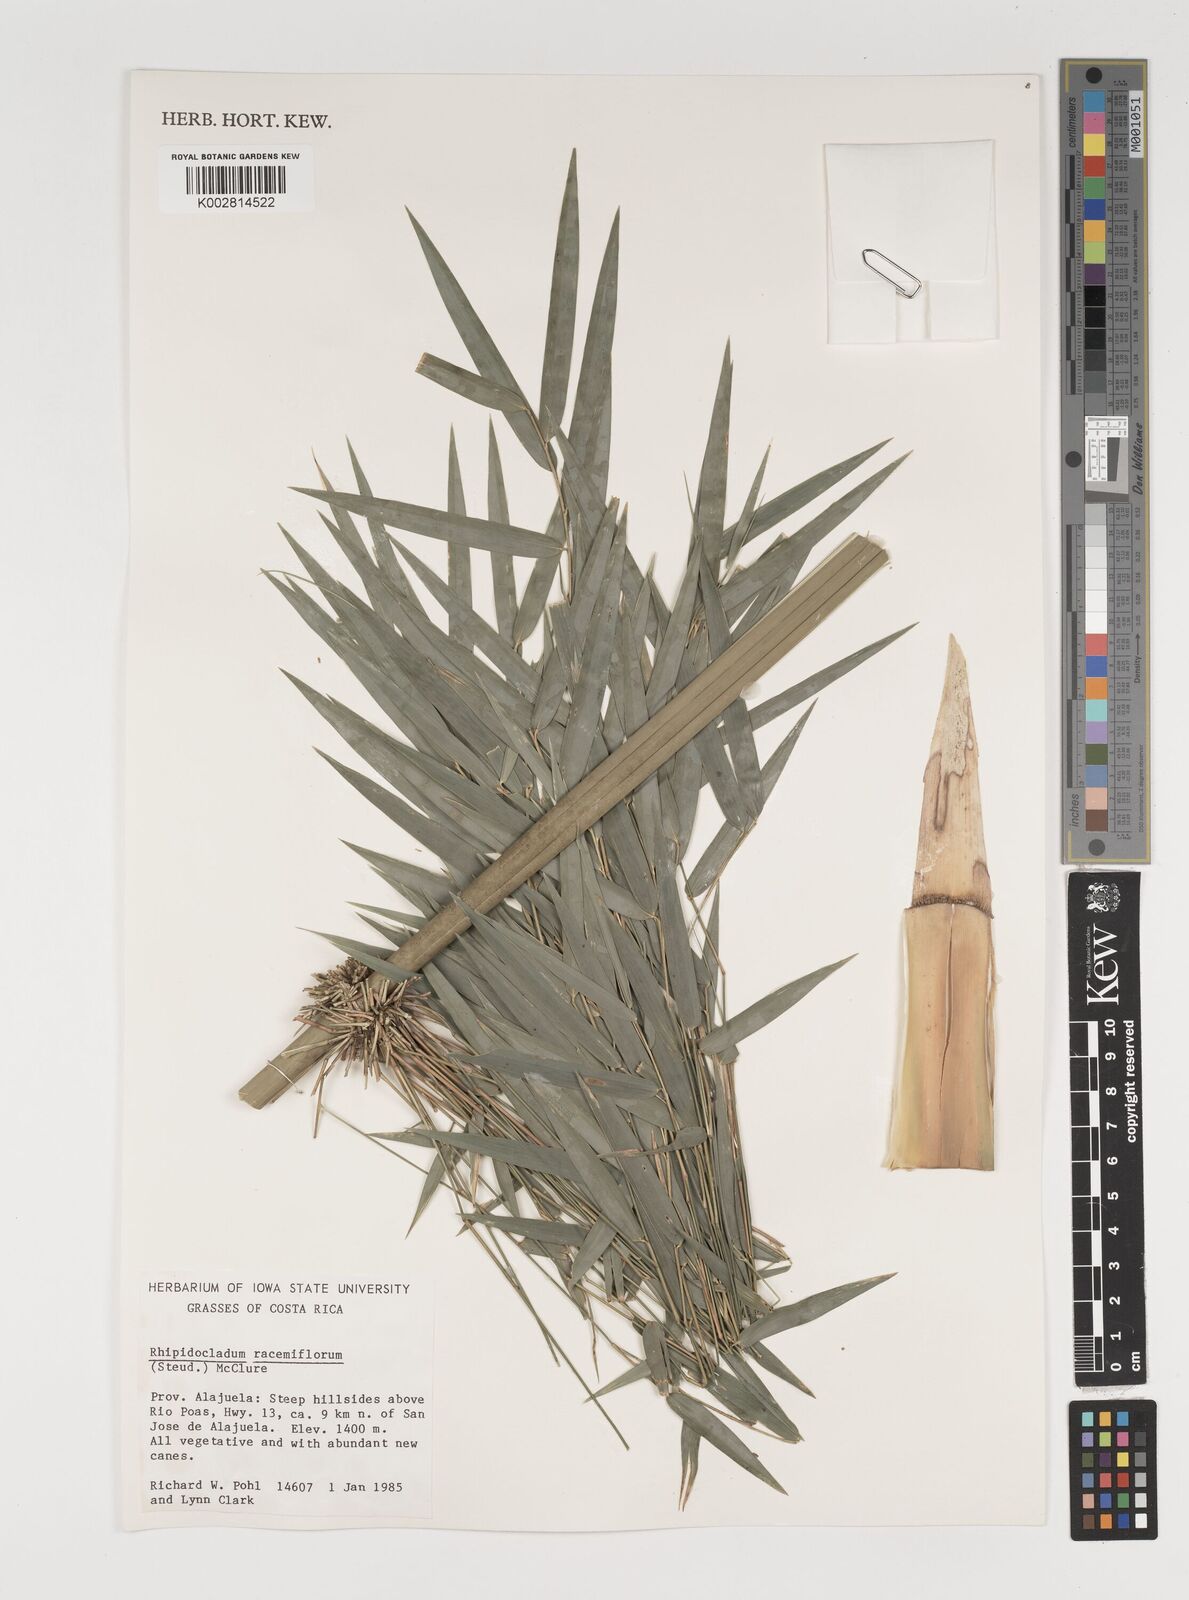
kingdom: Plantae
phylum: Tracheophyta
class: Liliopsida
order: Poales
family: Poaceae
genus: Rhipidocladum
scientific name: Rhipidocladum racemiflorum
